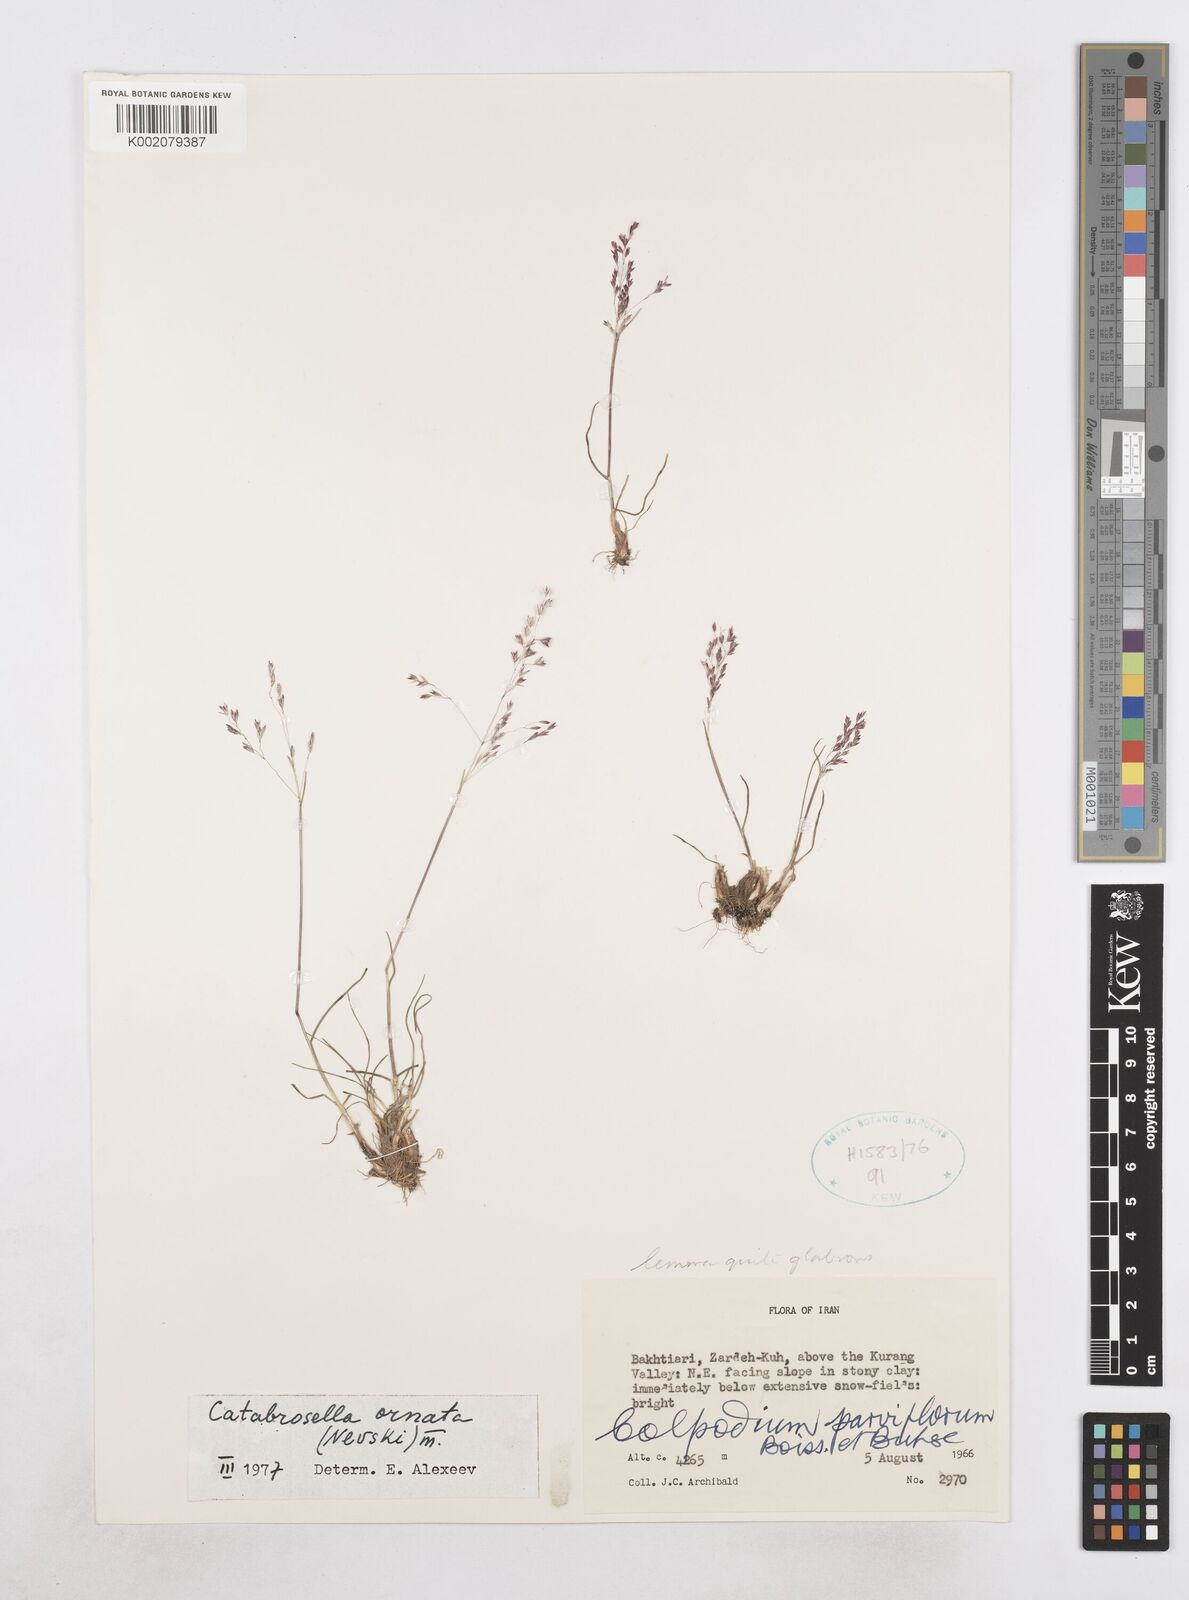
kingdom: Plantae
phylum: Tracheophyta
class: Liliopsida
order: Poales
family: Poaceae
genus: Catabrosella
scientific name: Catabrosella humilis
